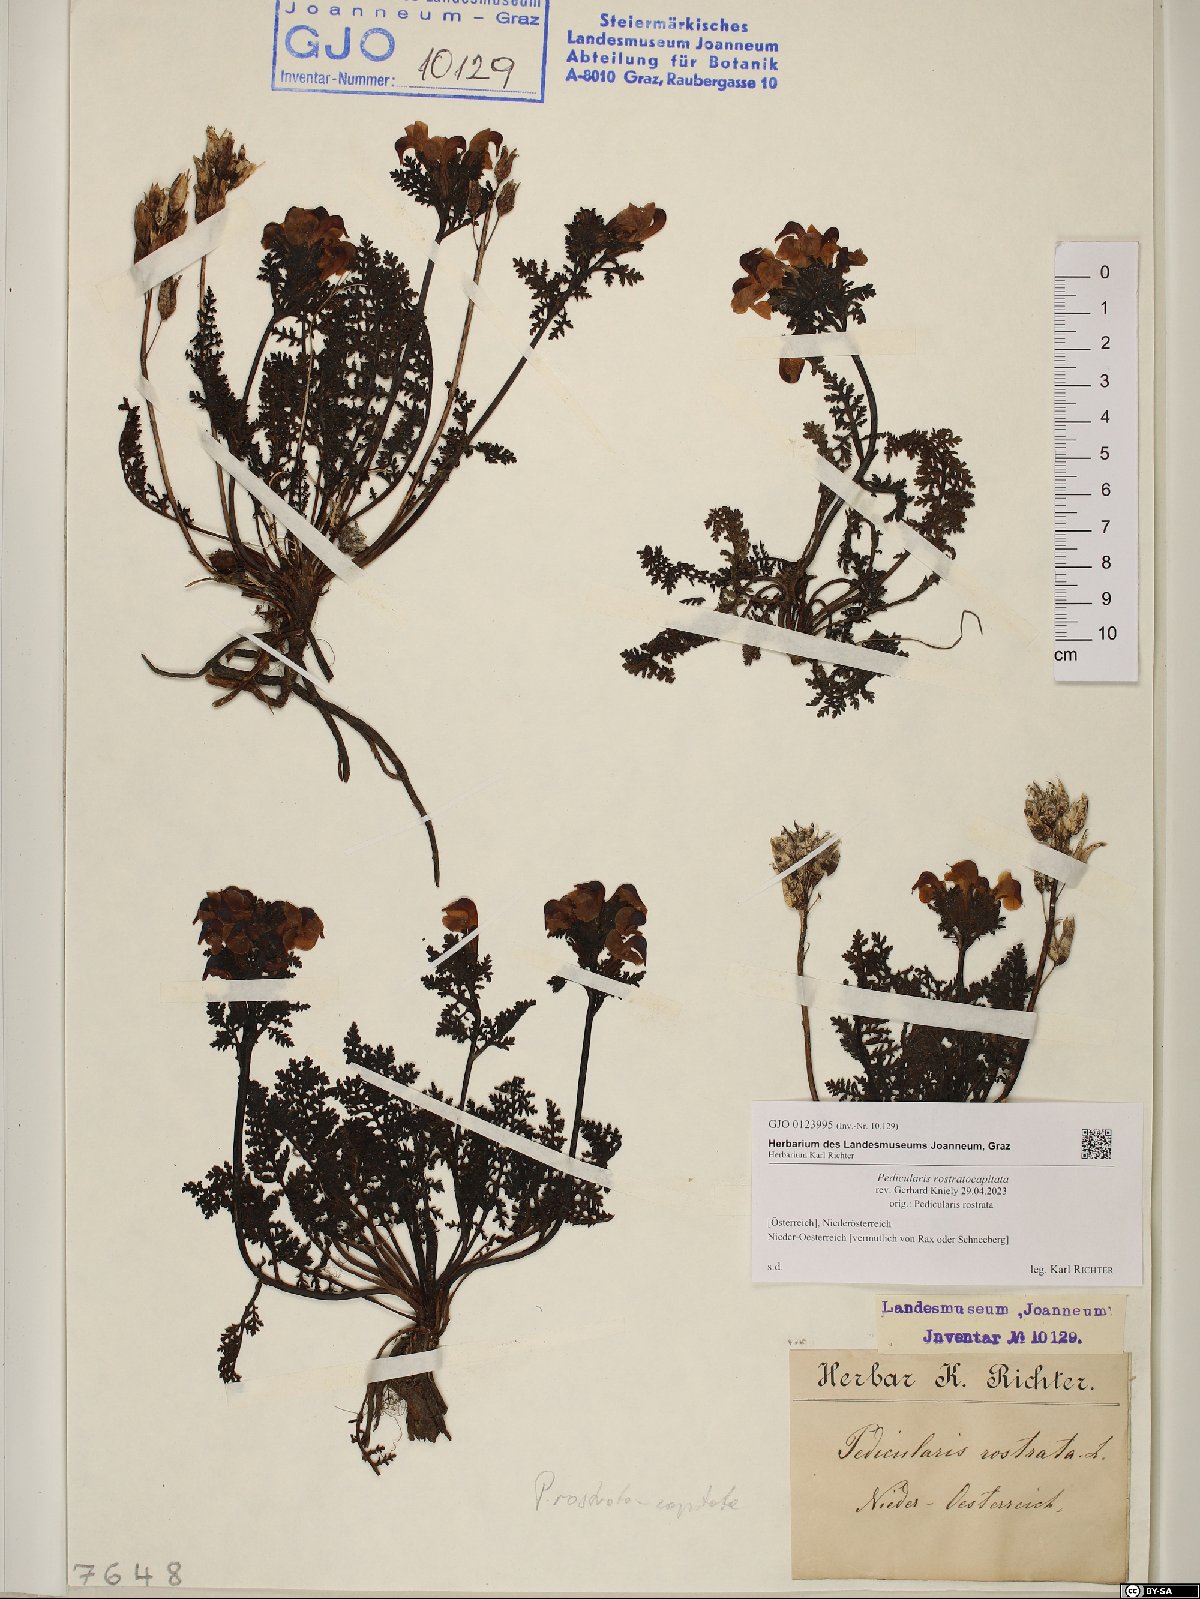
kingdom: Plantae
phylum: Tracheophyta
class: Magnoliopsida
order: Lamiales
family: Orobanchaceae
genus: Pedicularis
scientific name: Pedicularis rostratocapitata
